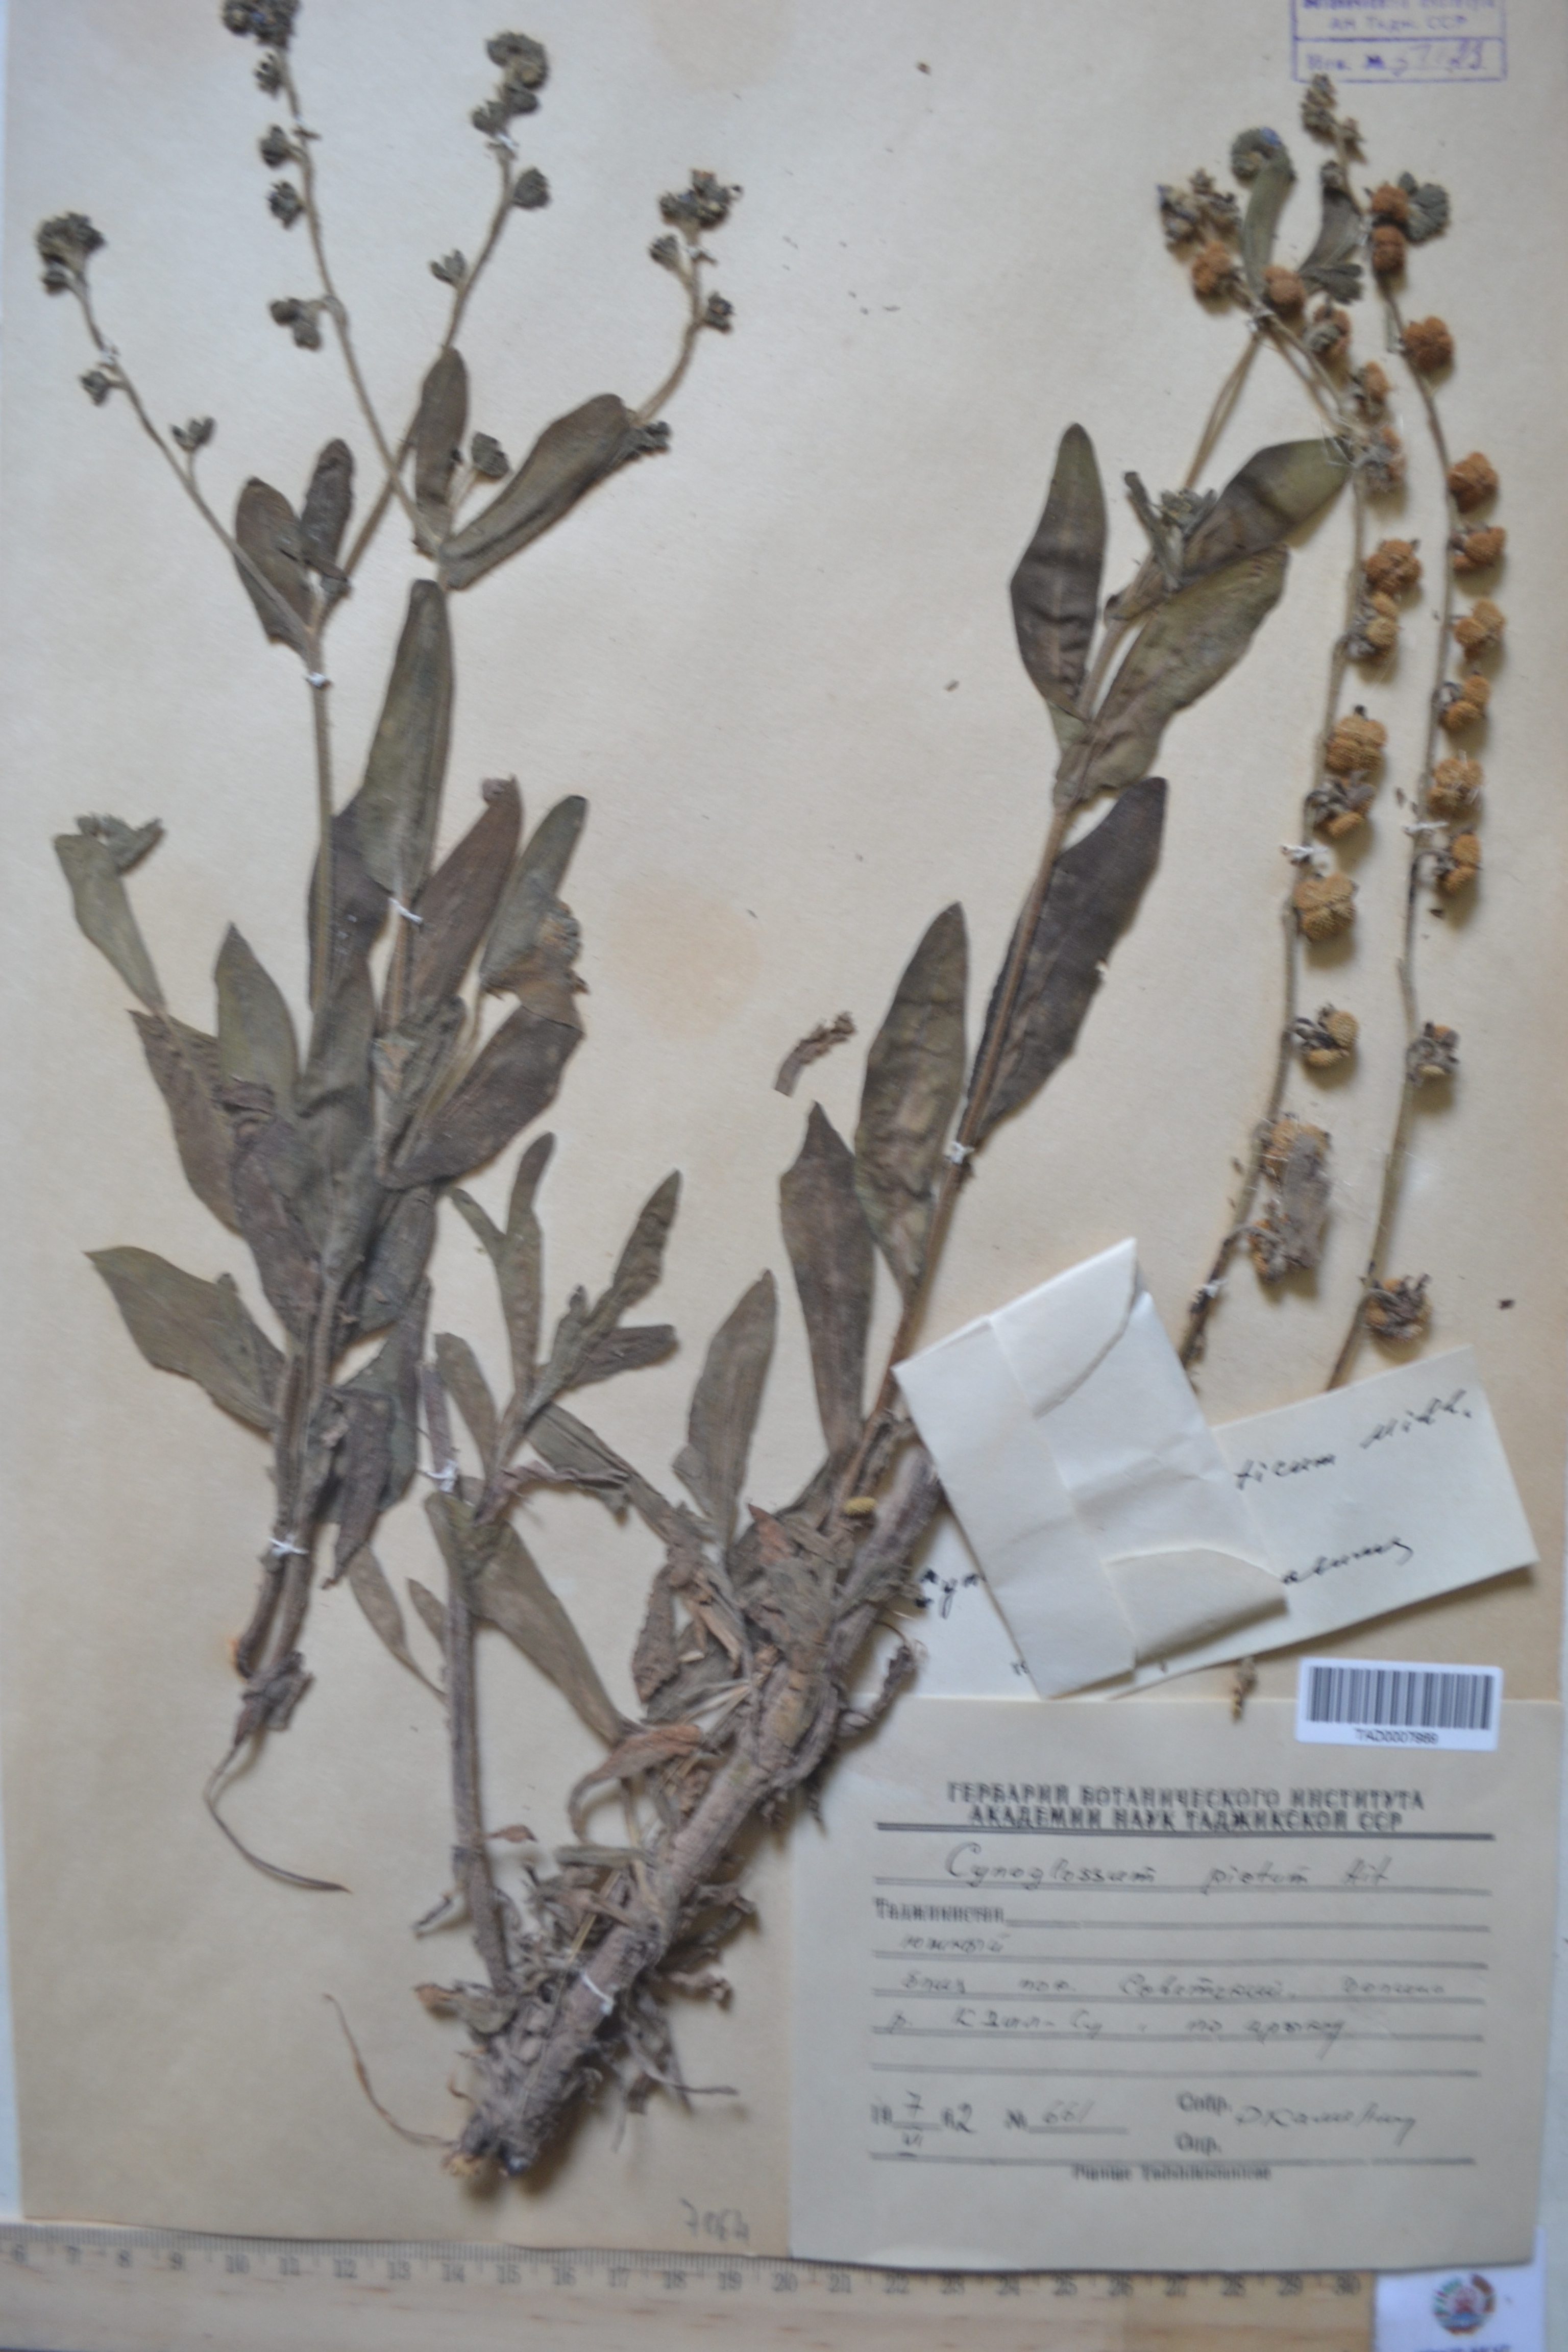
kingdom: Plantae
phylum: Tracheophyta
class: Magnoliopsida
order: Boraginales
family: Boraginaceae
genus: Cynoglossum
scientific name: Cynoglossum creticum
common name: Blue hound's tongue
